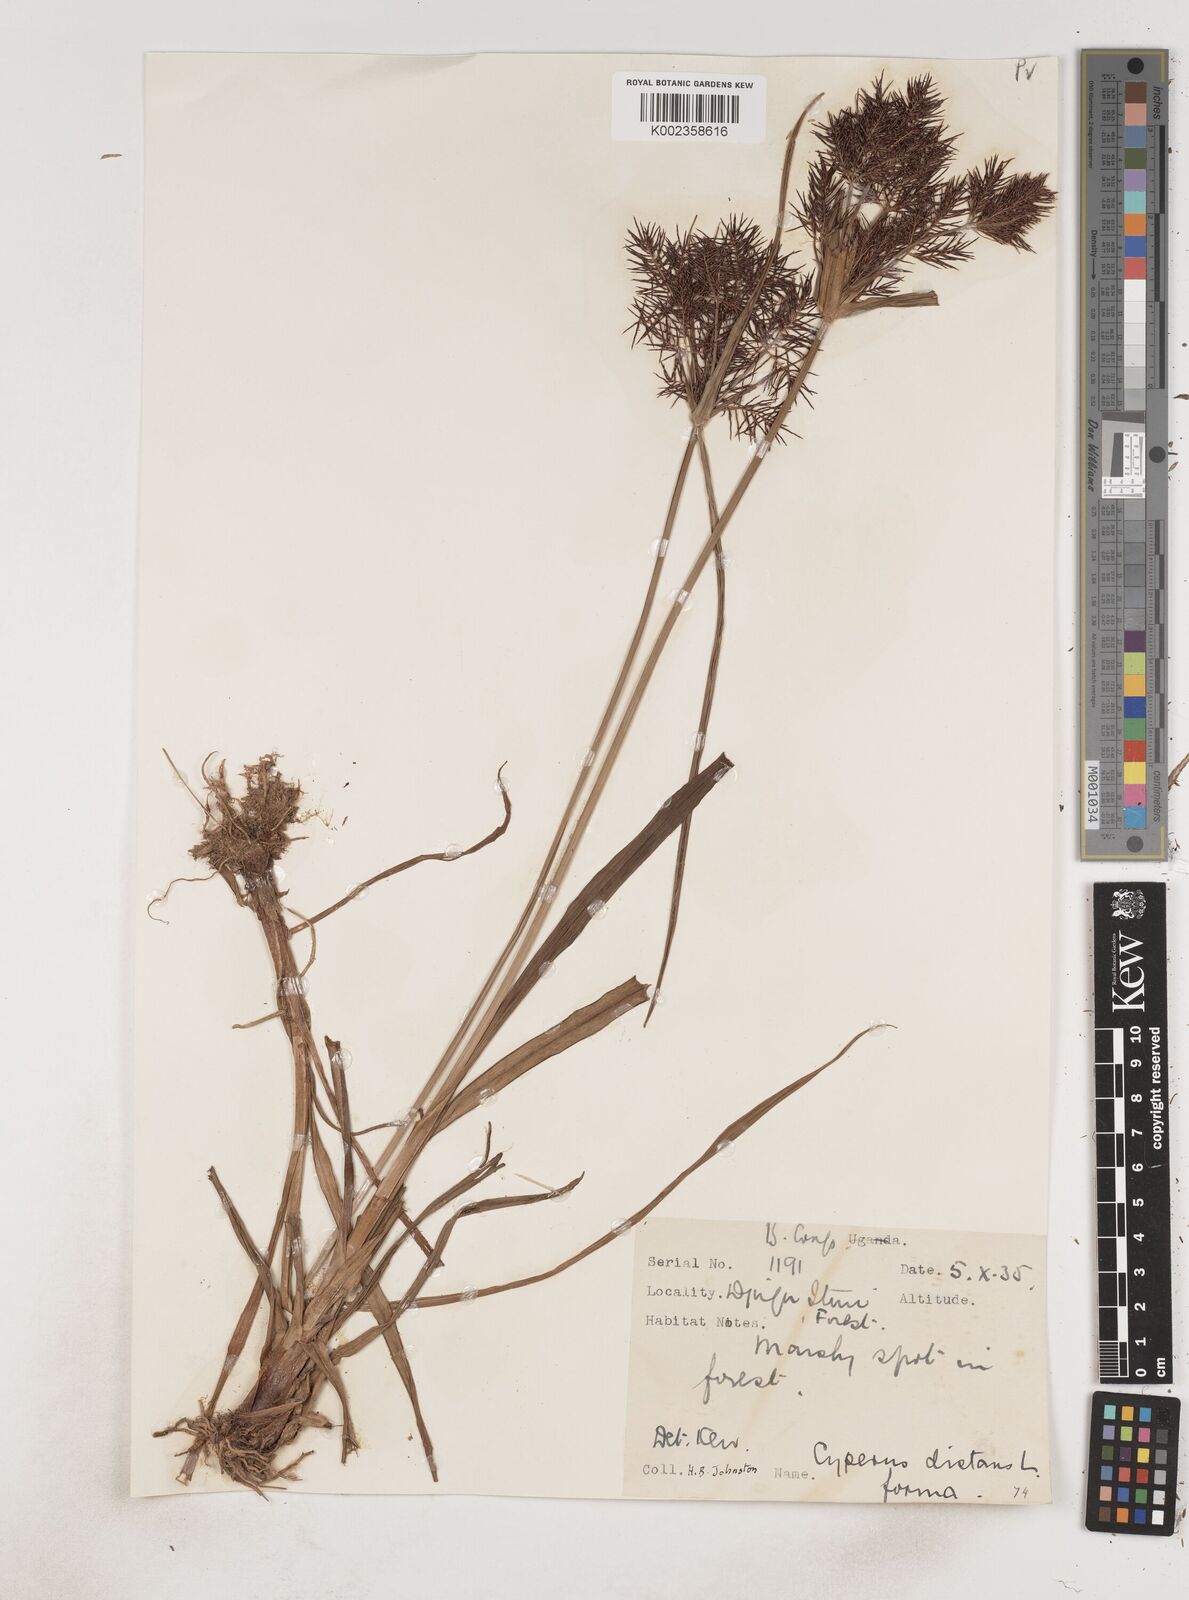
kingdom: Plantae
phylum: Tracheophyta
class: Liliopsida
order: Poales
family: Cyperaceae
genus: Cyperus
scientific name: Cyperus distans
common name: Slender cyperus
